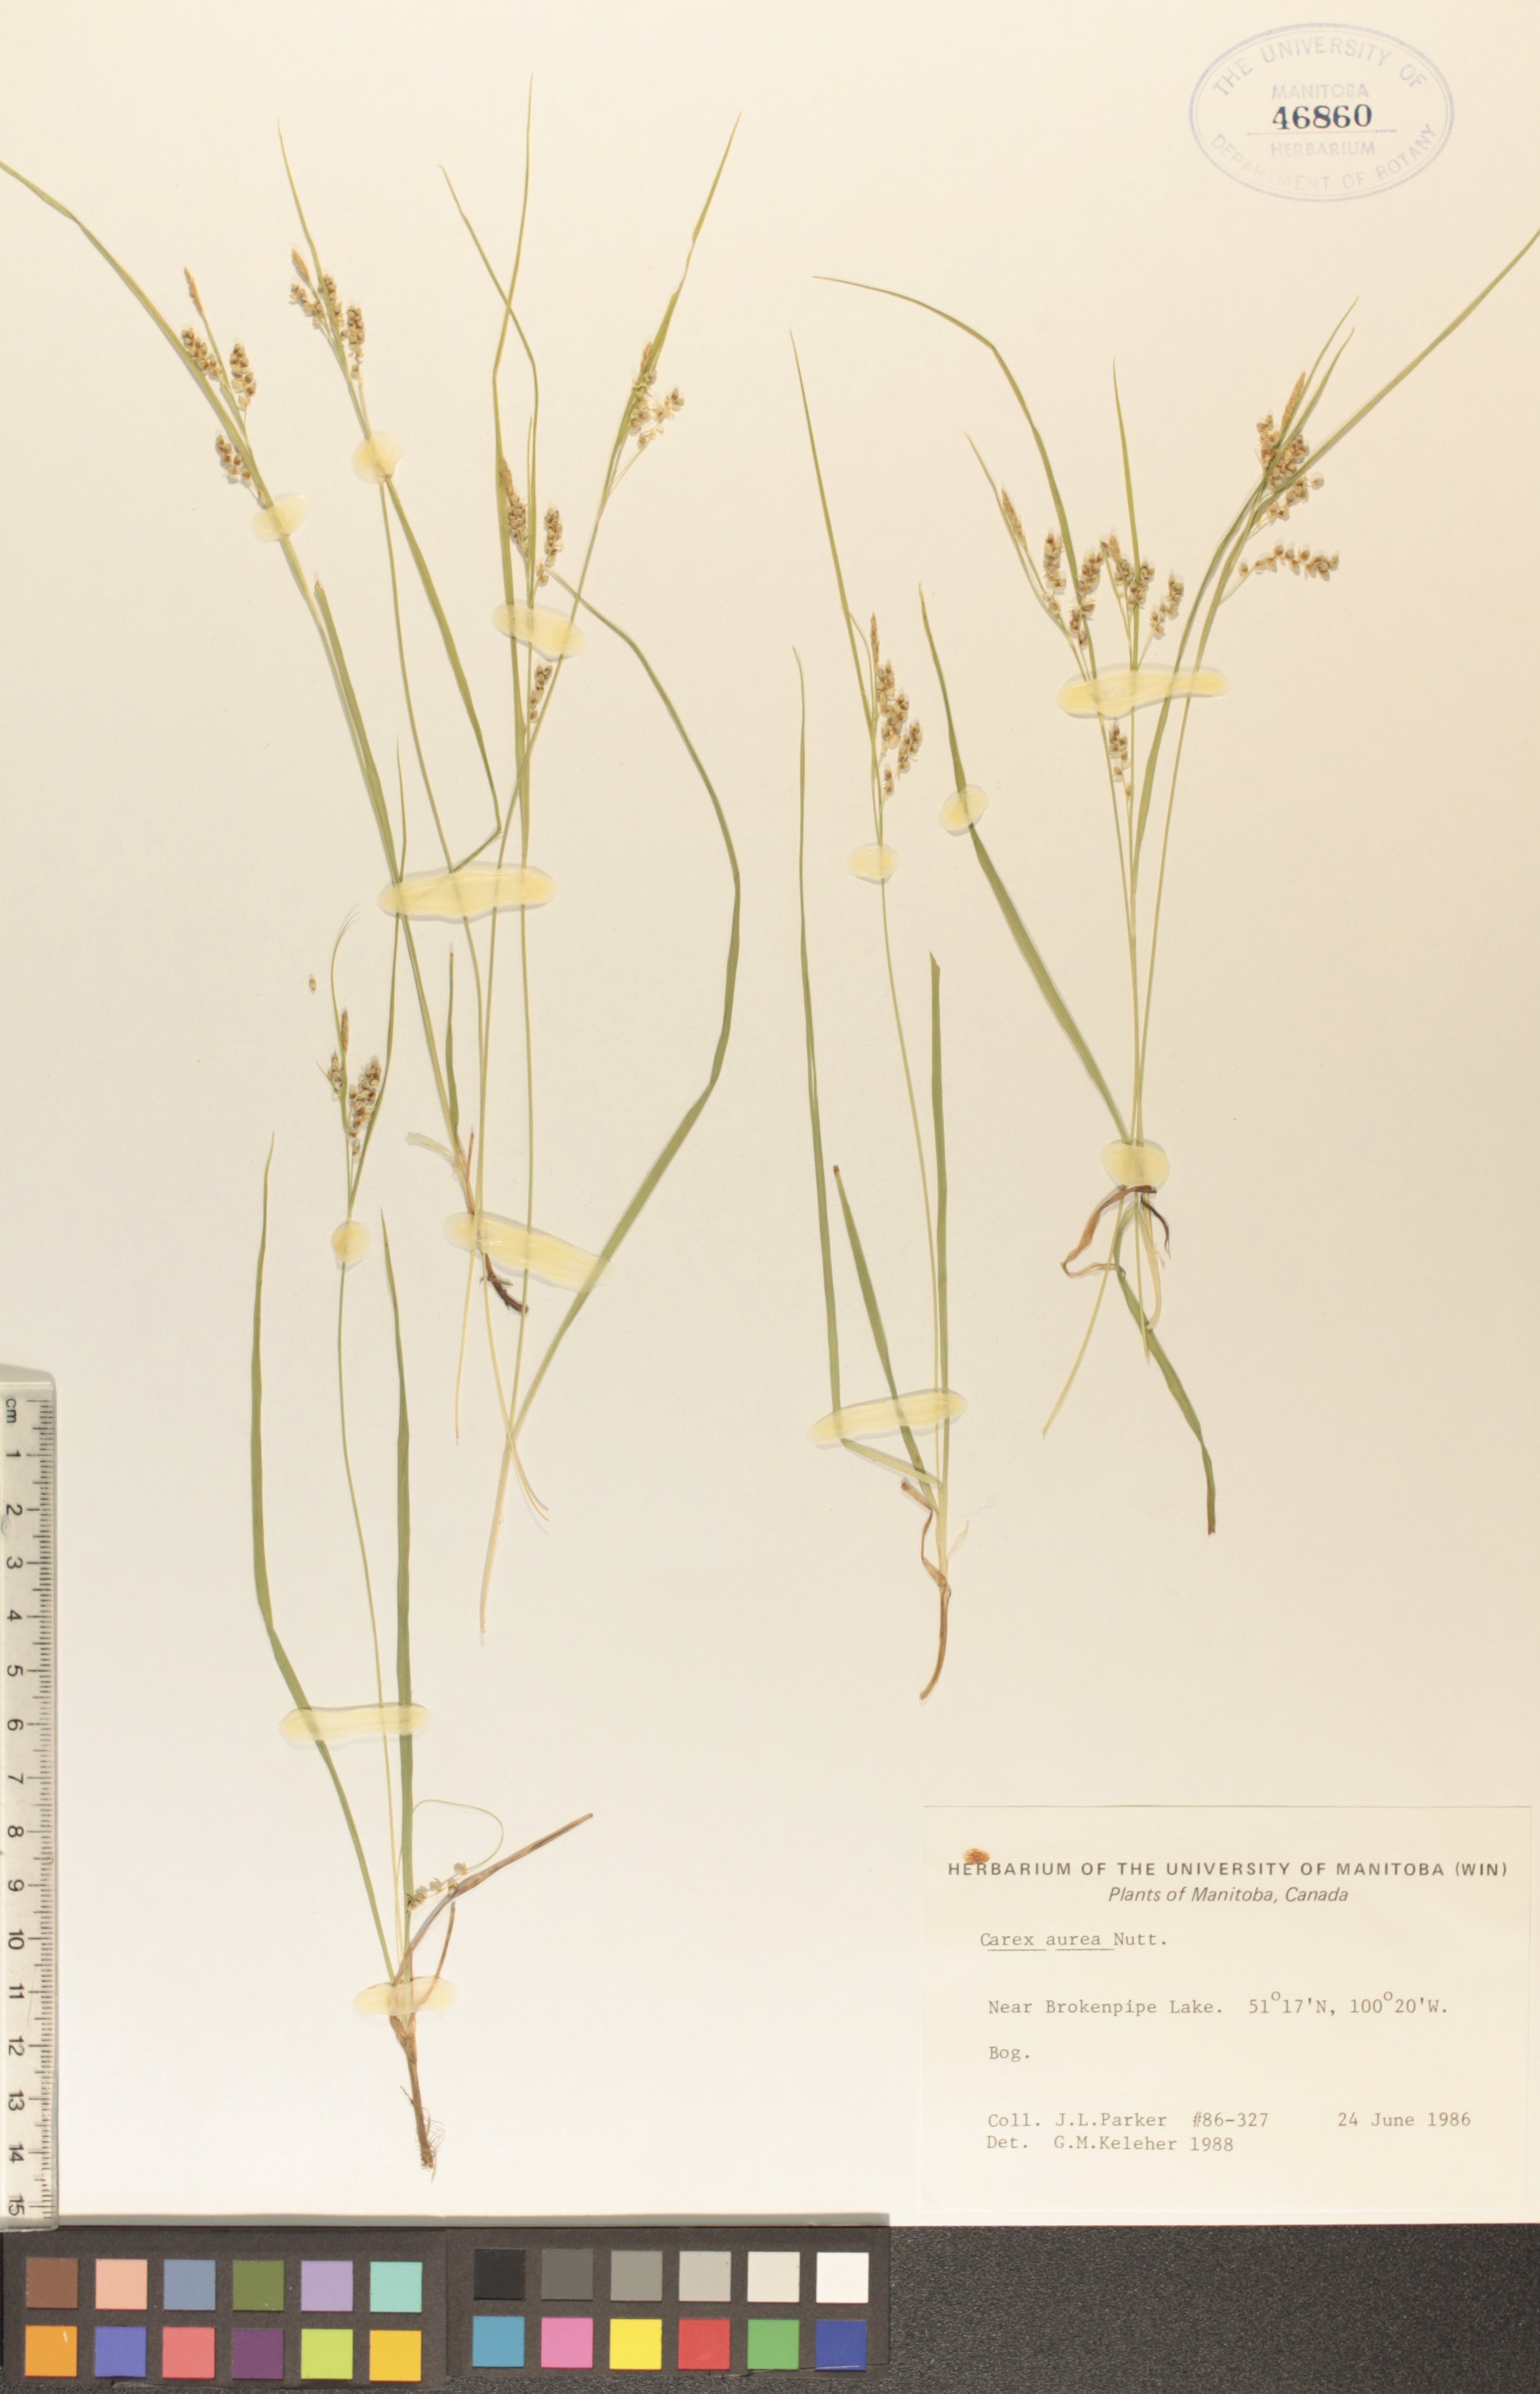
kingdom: Plantae
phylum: Tracheophyta
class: Liliopsida
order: Poales
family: Cyperaceae
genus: Carex
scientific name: Carex aurea
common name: Golden sedge
